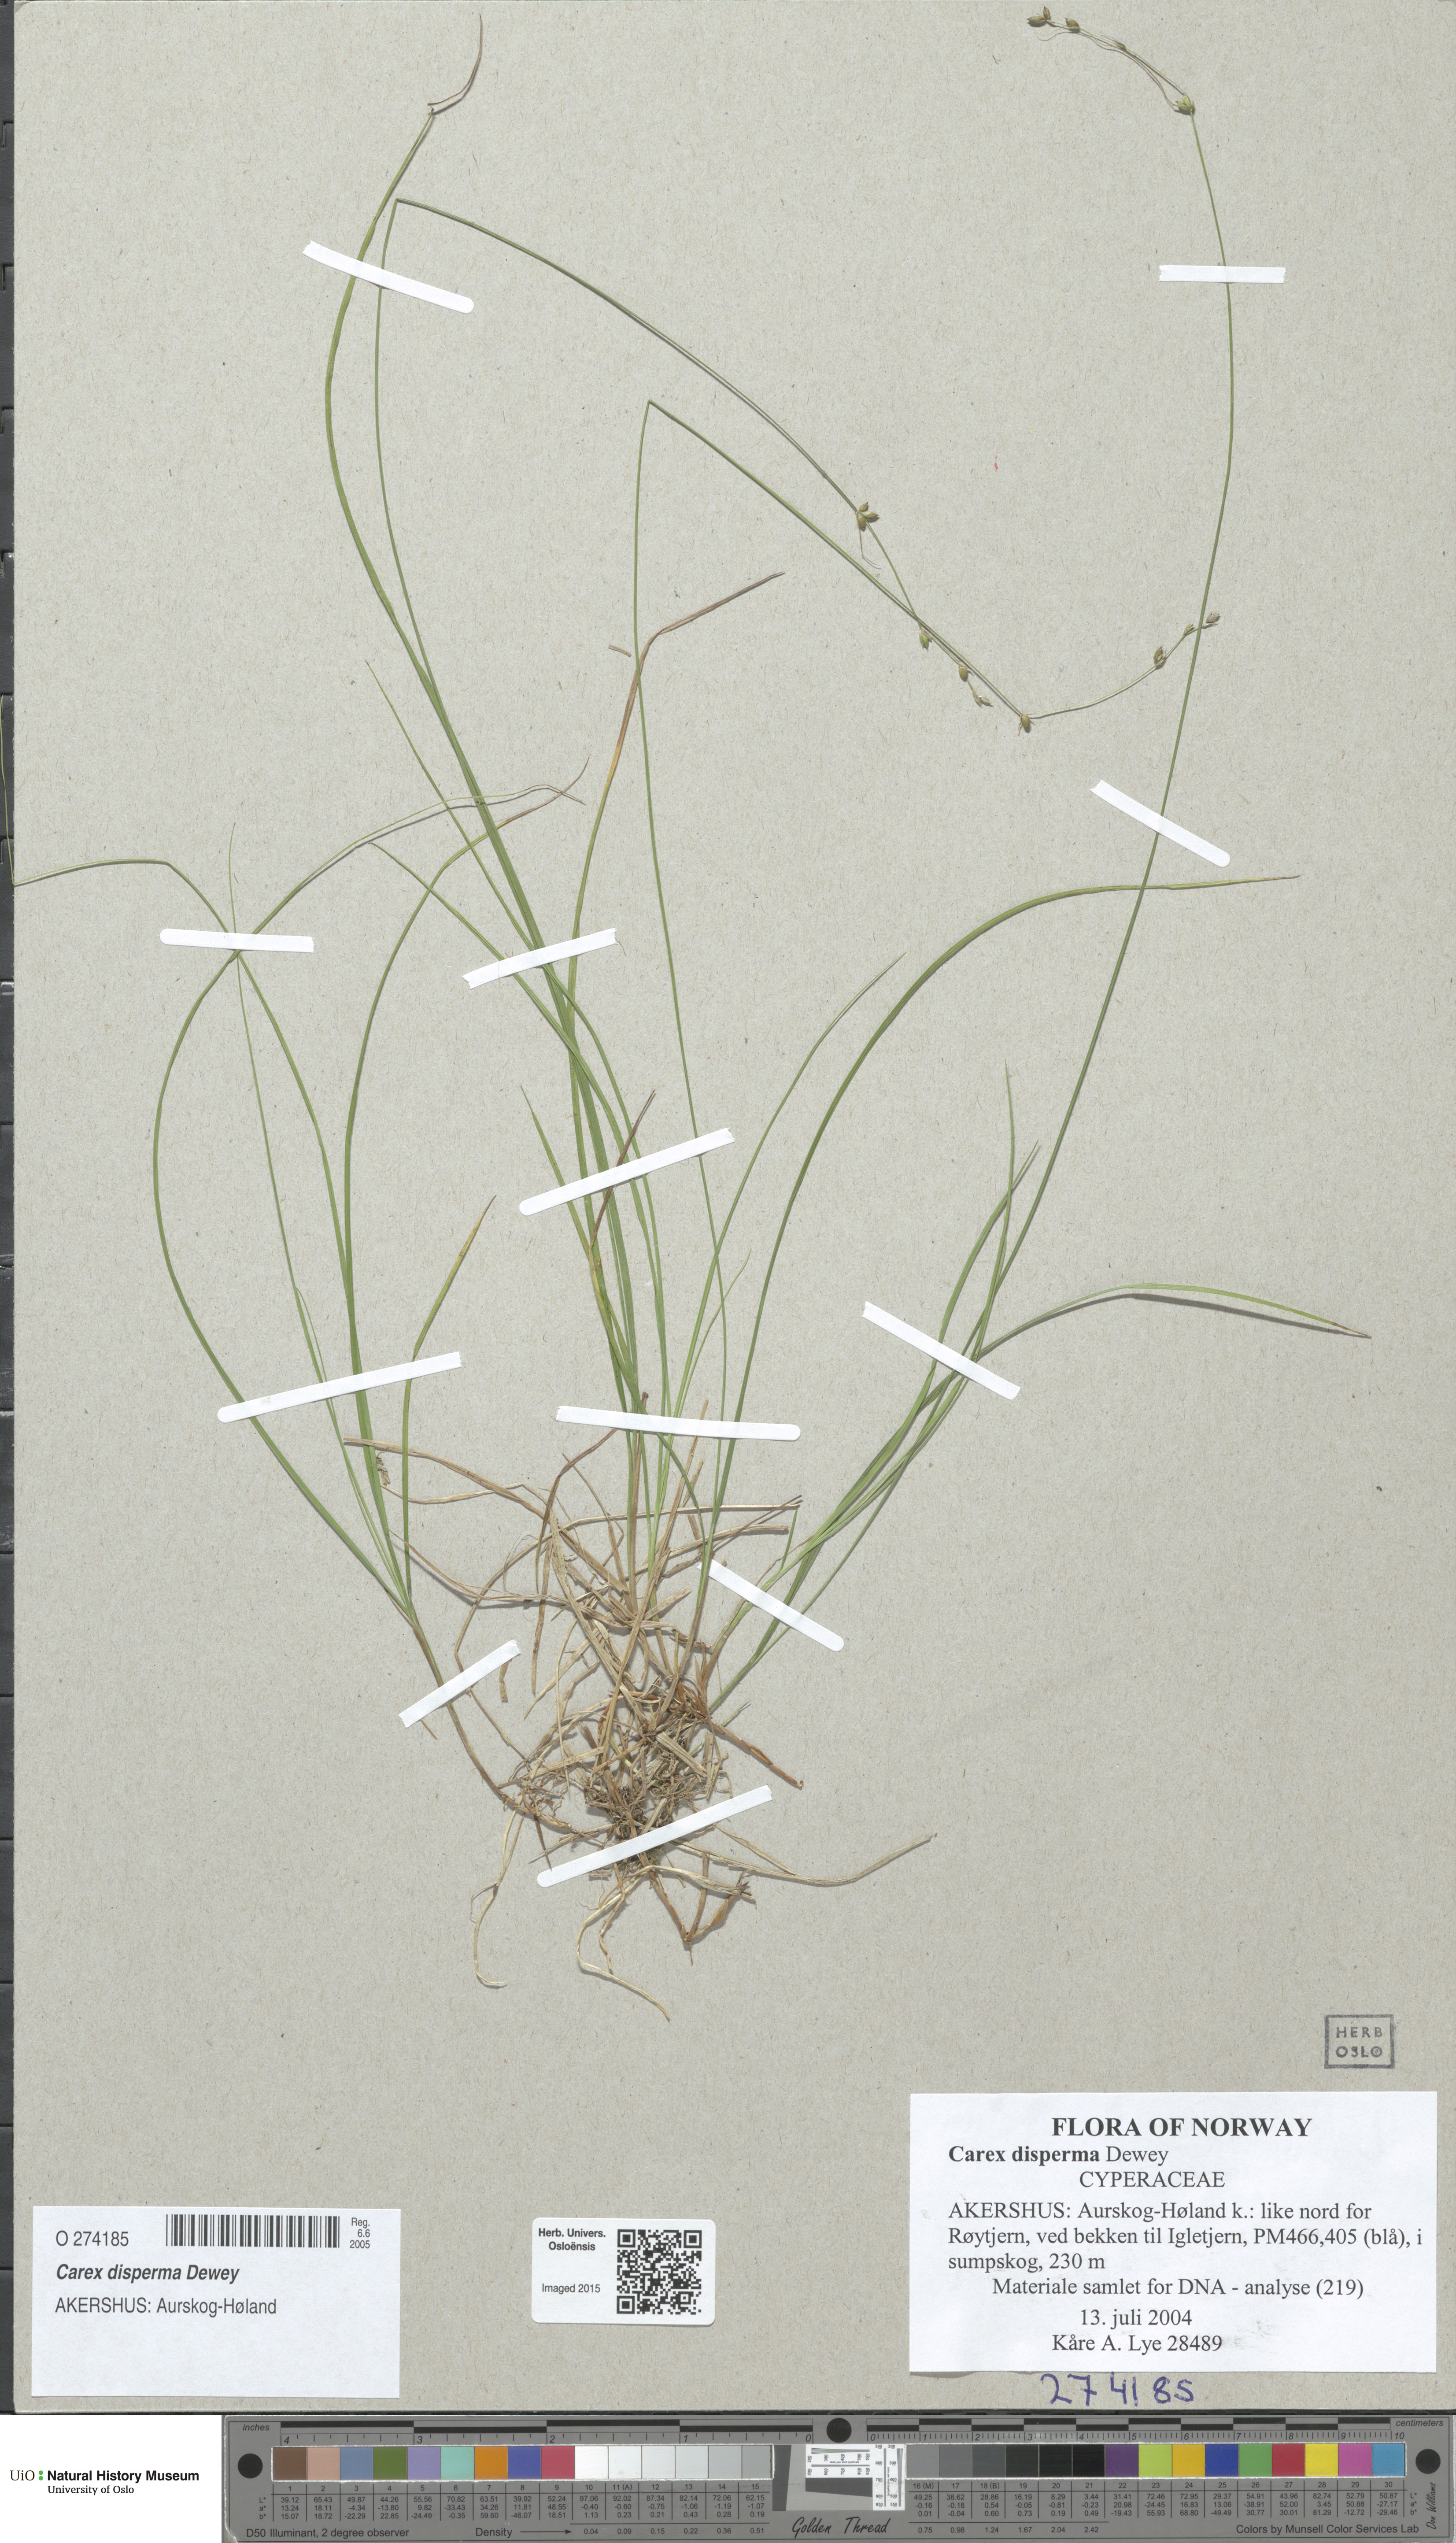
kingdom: Plantae
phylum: Tracheophyta
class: Liliopsida
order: Poales
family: Cyperaceae
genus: Carex
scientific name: Carex disperma
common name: Short-leaved sedge
